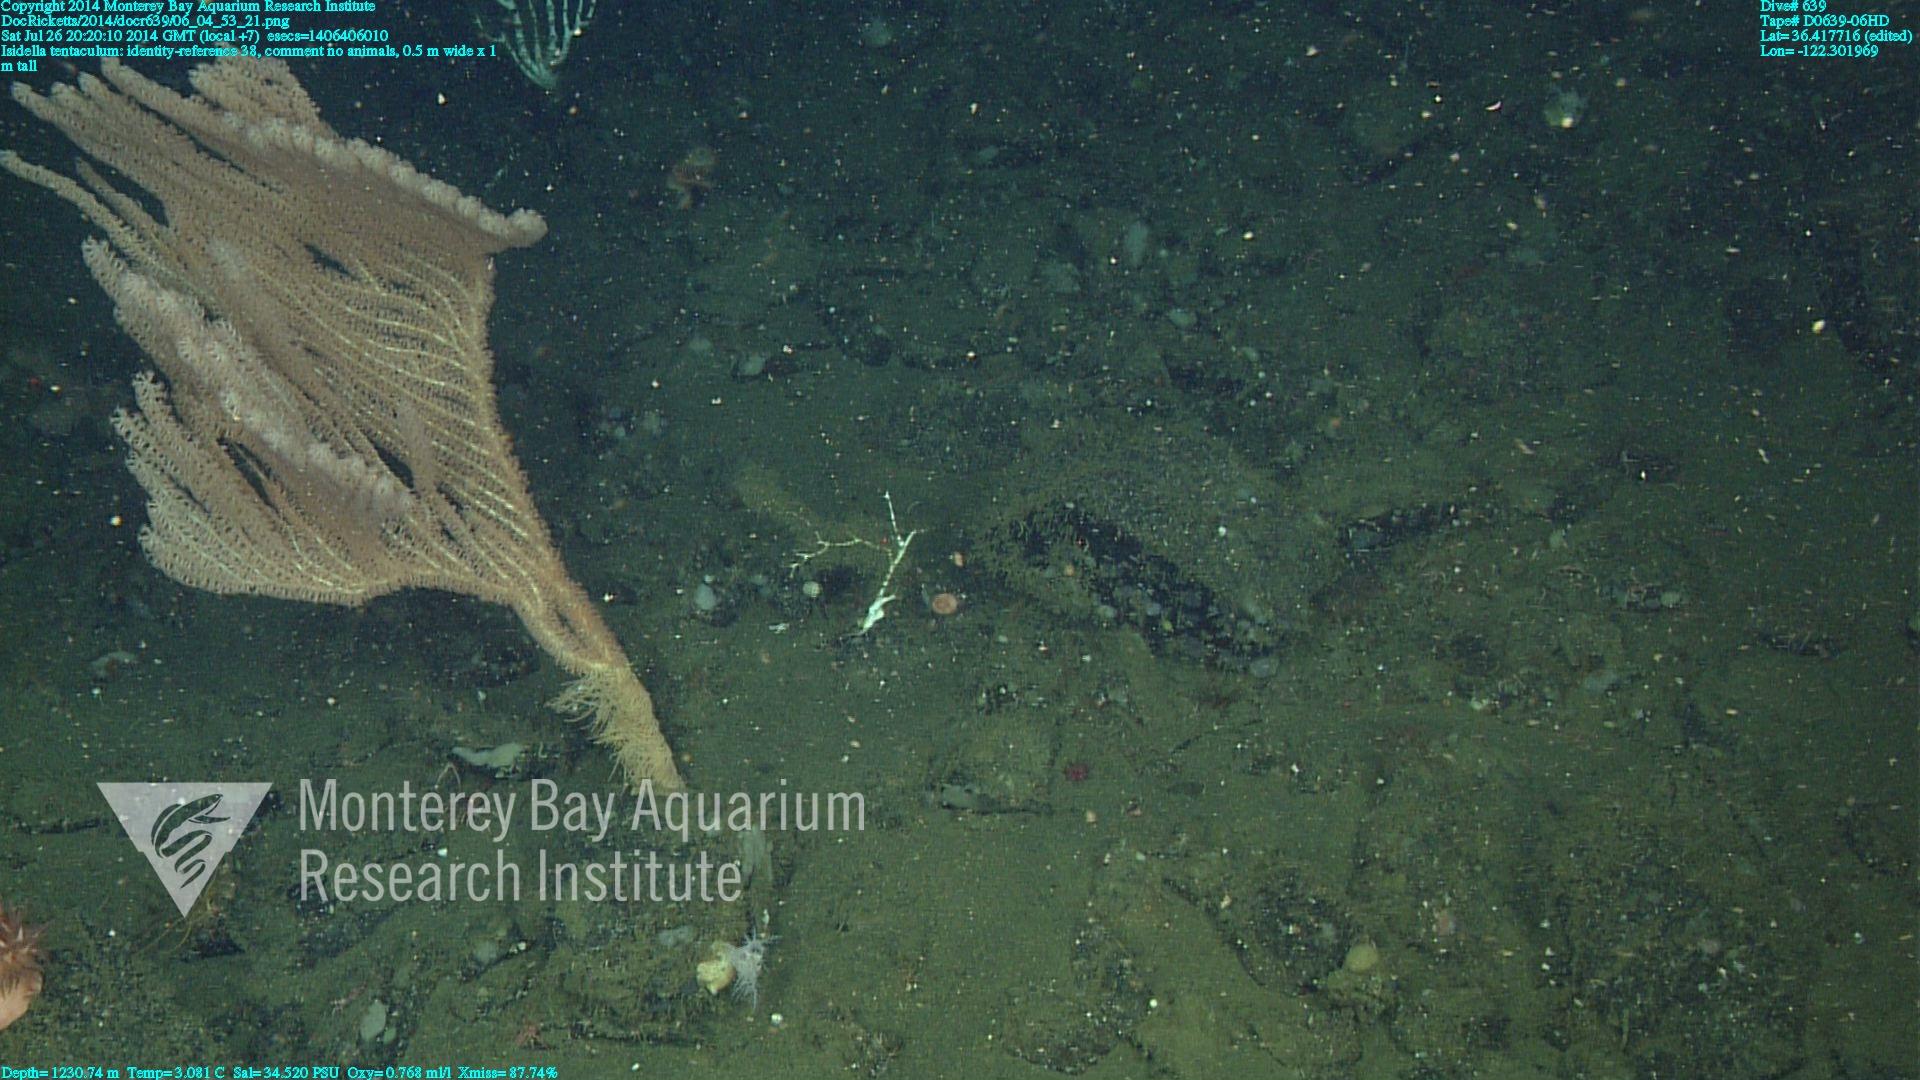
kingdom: Animalia
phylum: Cnidaria
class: Anthozoa
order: Scleralcyonacea
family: Keratoisididae
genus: Isidella
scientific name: Isidella tentaculum
